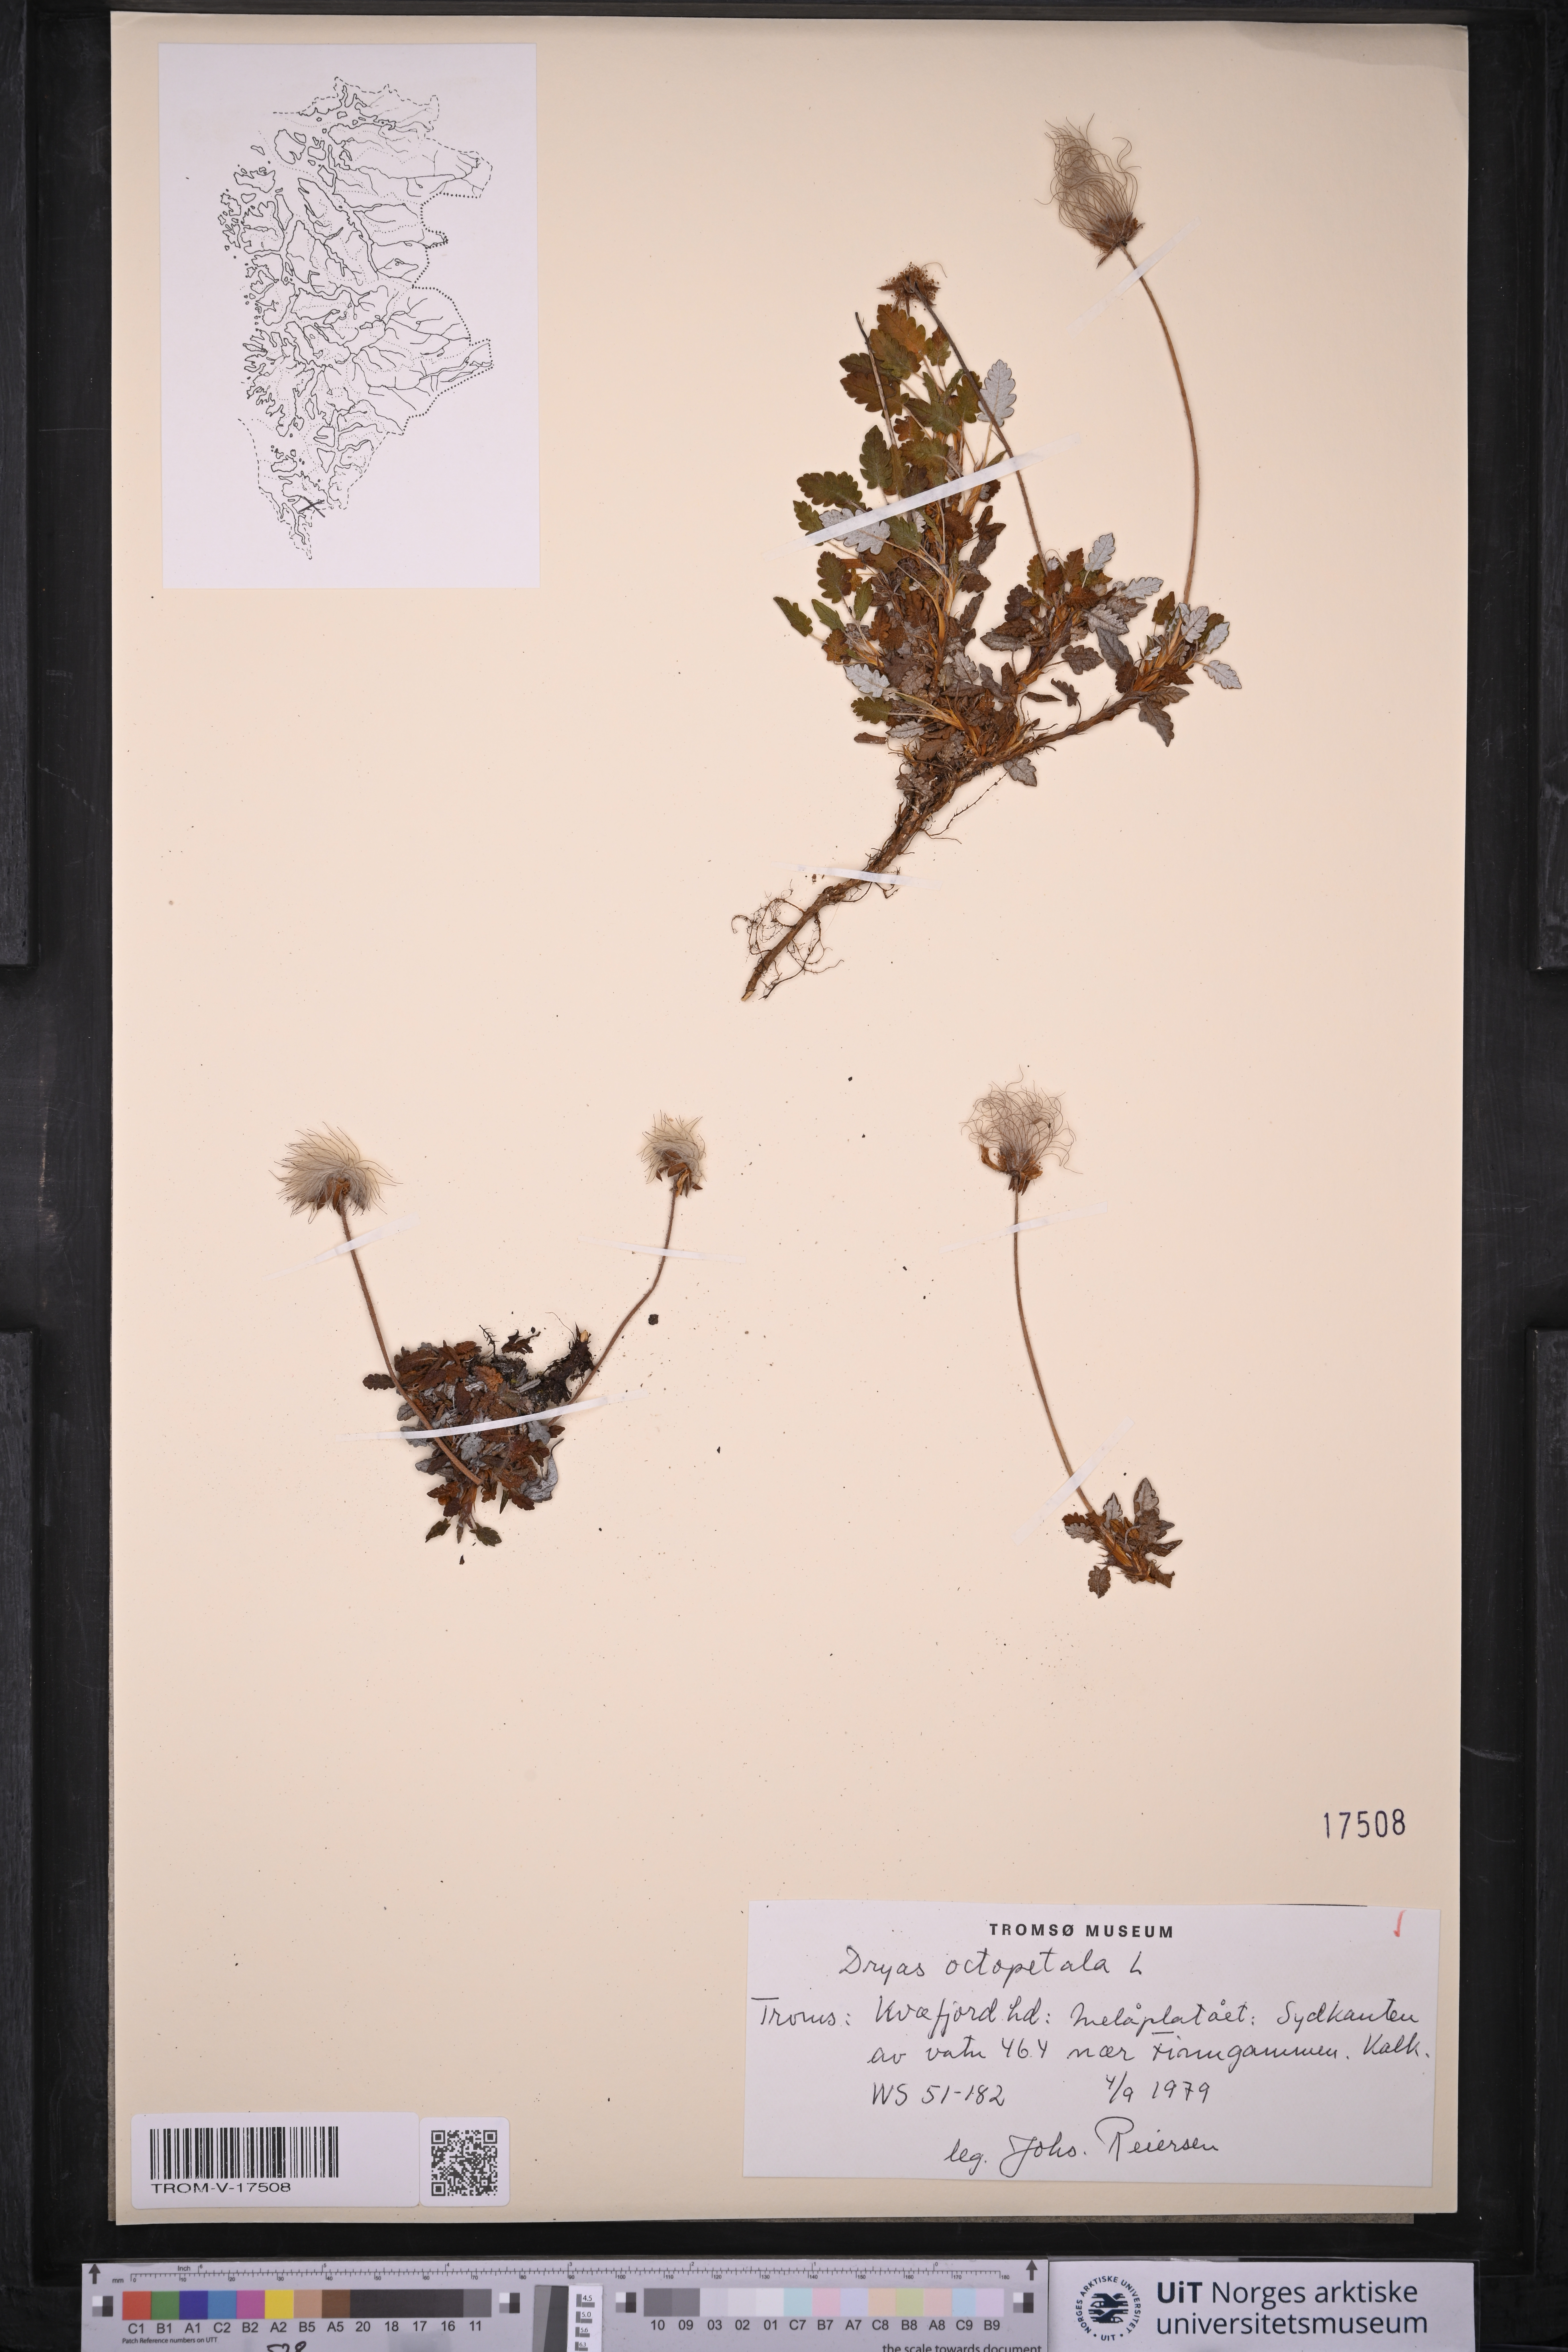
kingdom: Plantae
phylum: Tracheophyta
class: Magnoliopsida
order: Rosales
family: Rosaceae
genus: Dryas
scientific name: Dryas octopetala
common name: Eight-petal mountain-avens
